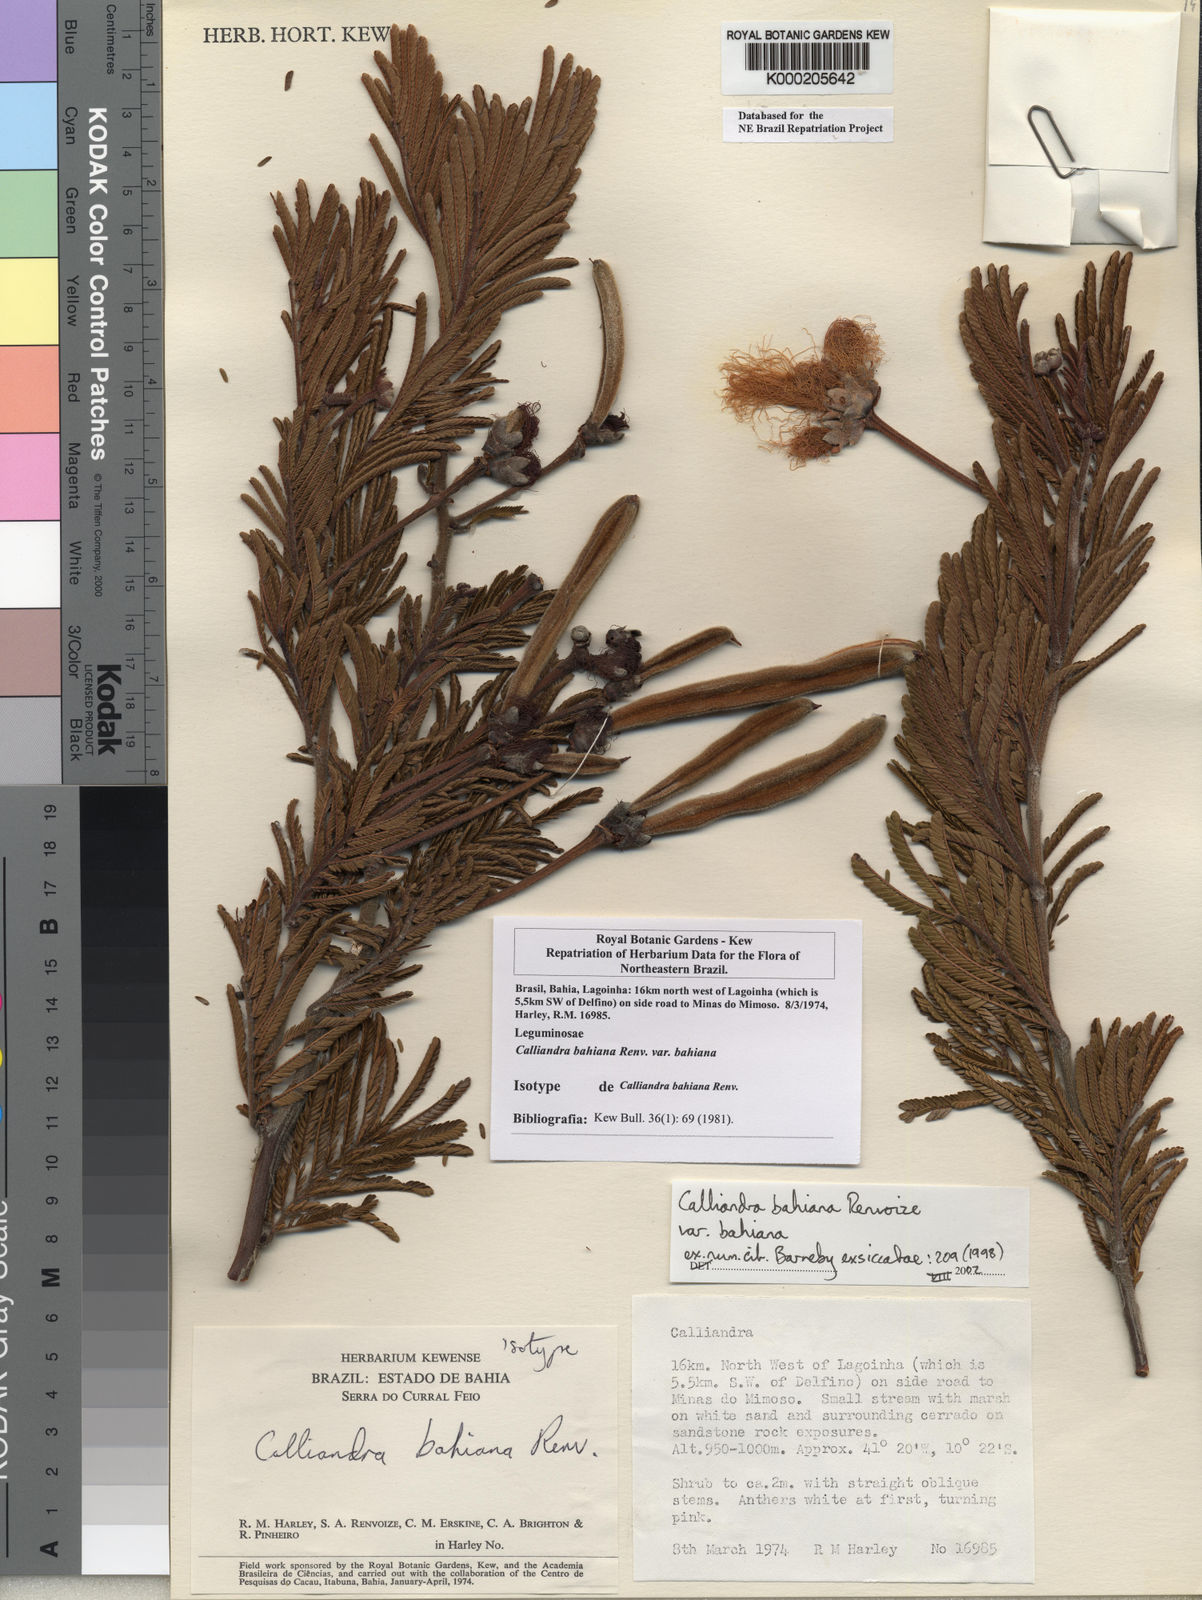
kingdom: Plantae
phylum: Tracheophyta
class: Magnoliopsida
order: Fabales
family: Fabaceae
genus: Calliandra
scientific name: Calliandra bahiana
